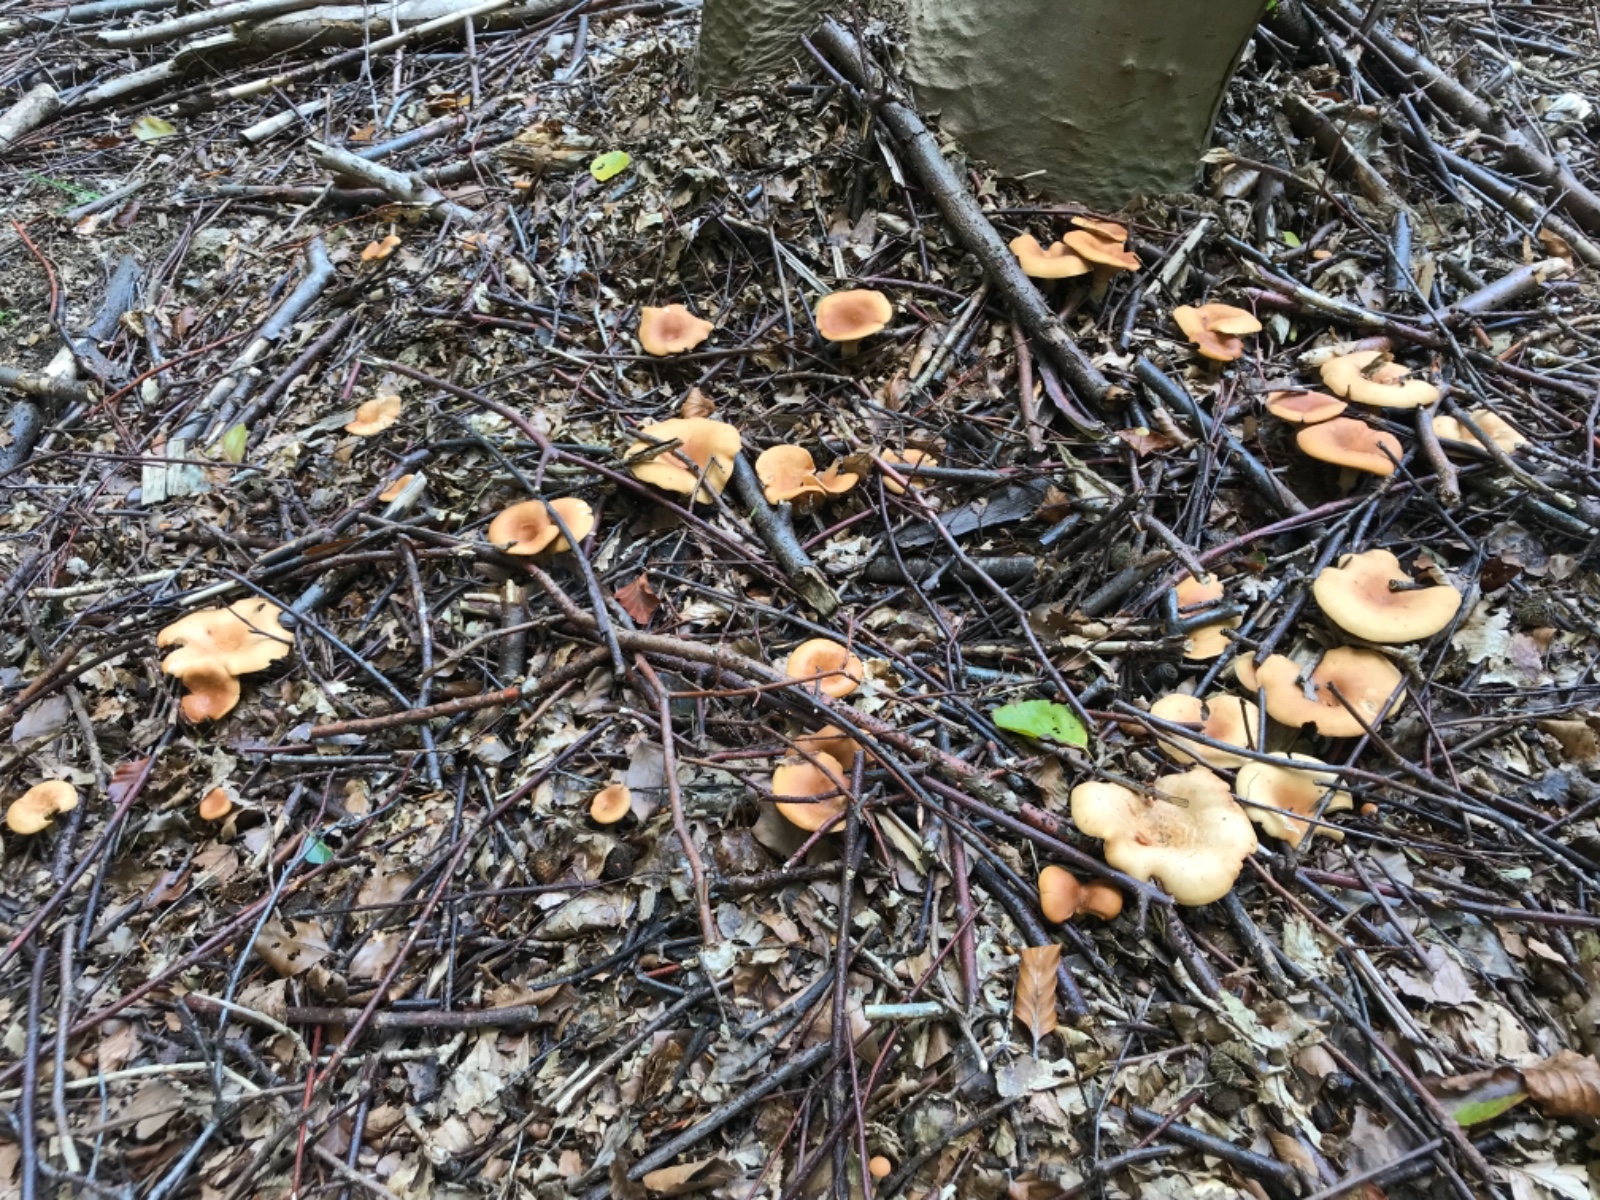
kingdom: Fungi
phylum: Basidiomycota
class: Agaricomycetes
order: Agaricales
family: Tricholomataceae
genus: Paralepista
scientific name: Paralepista flaccida
